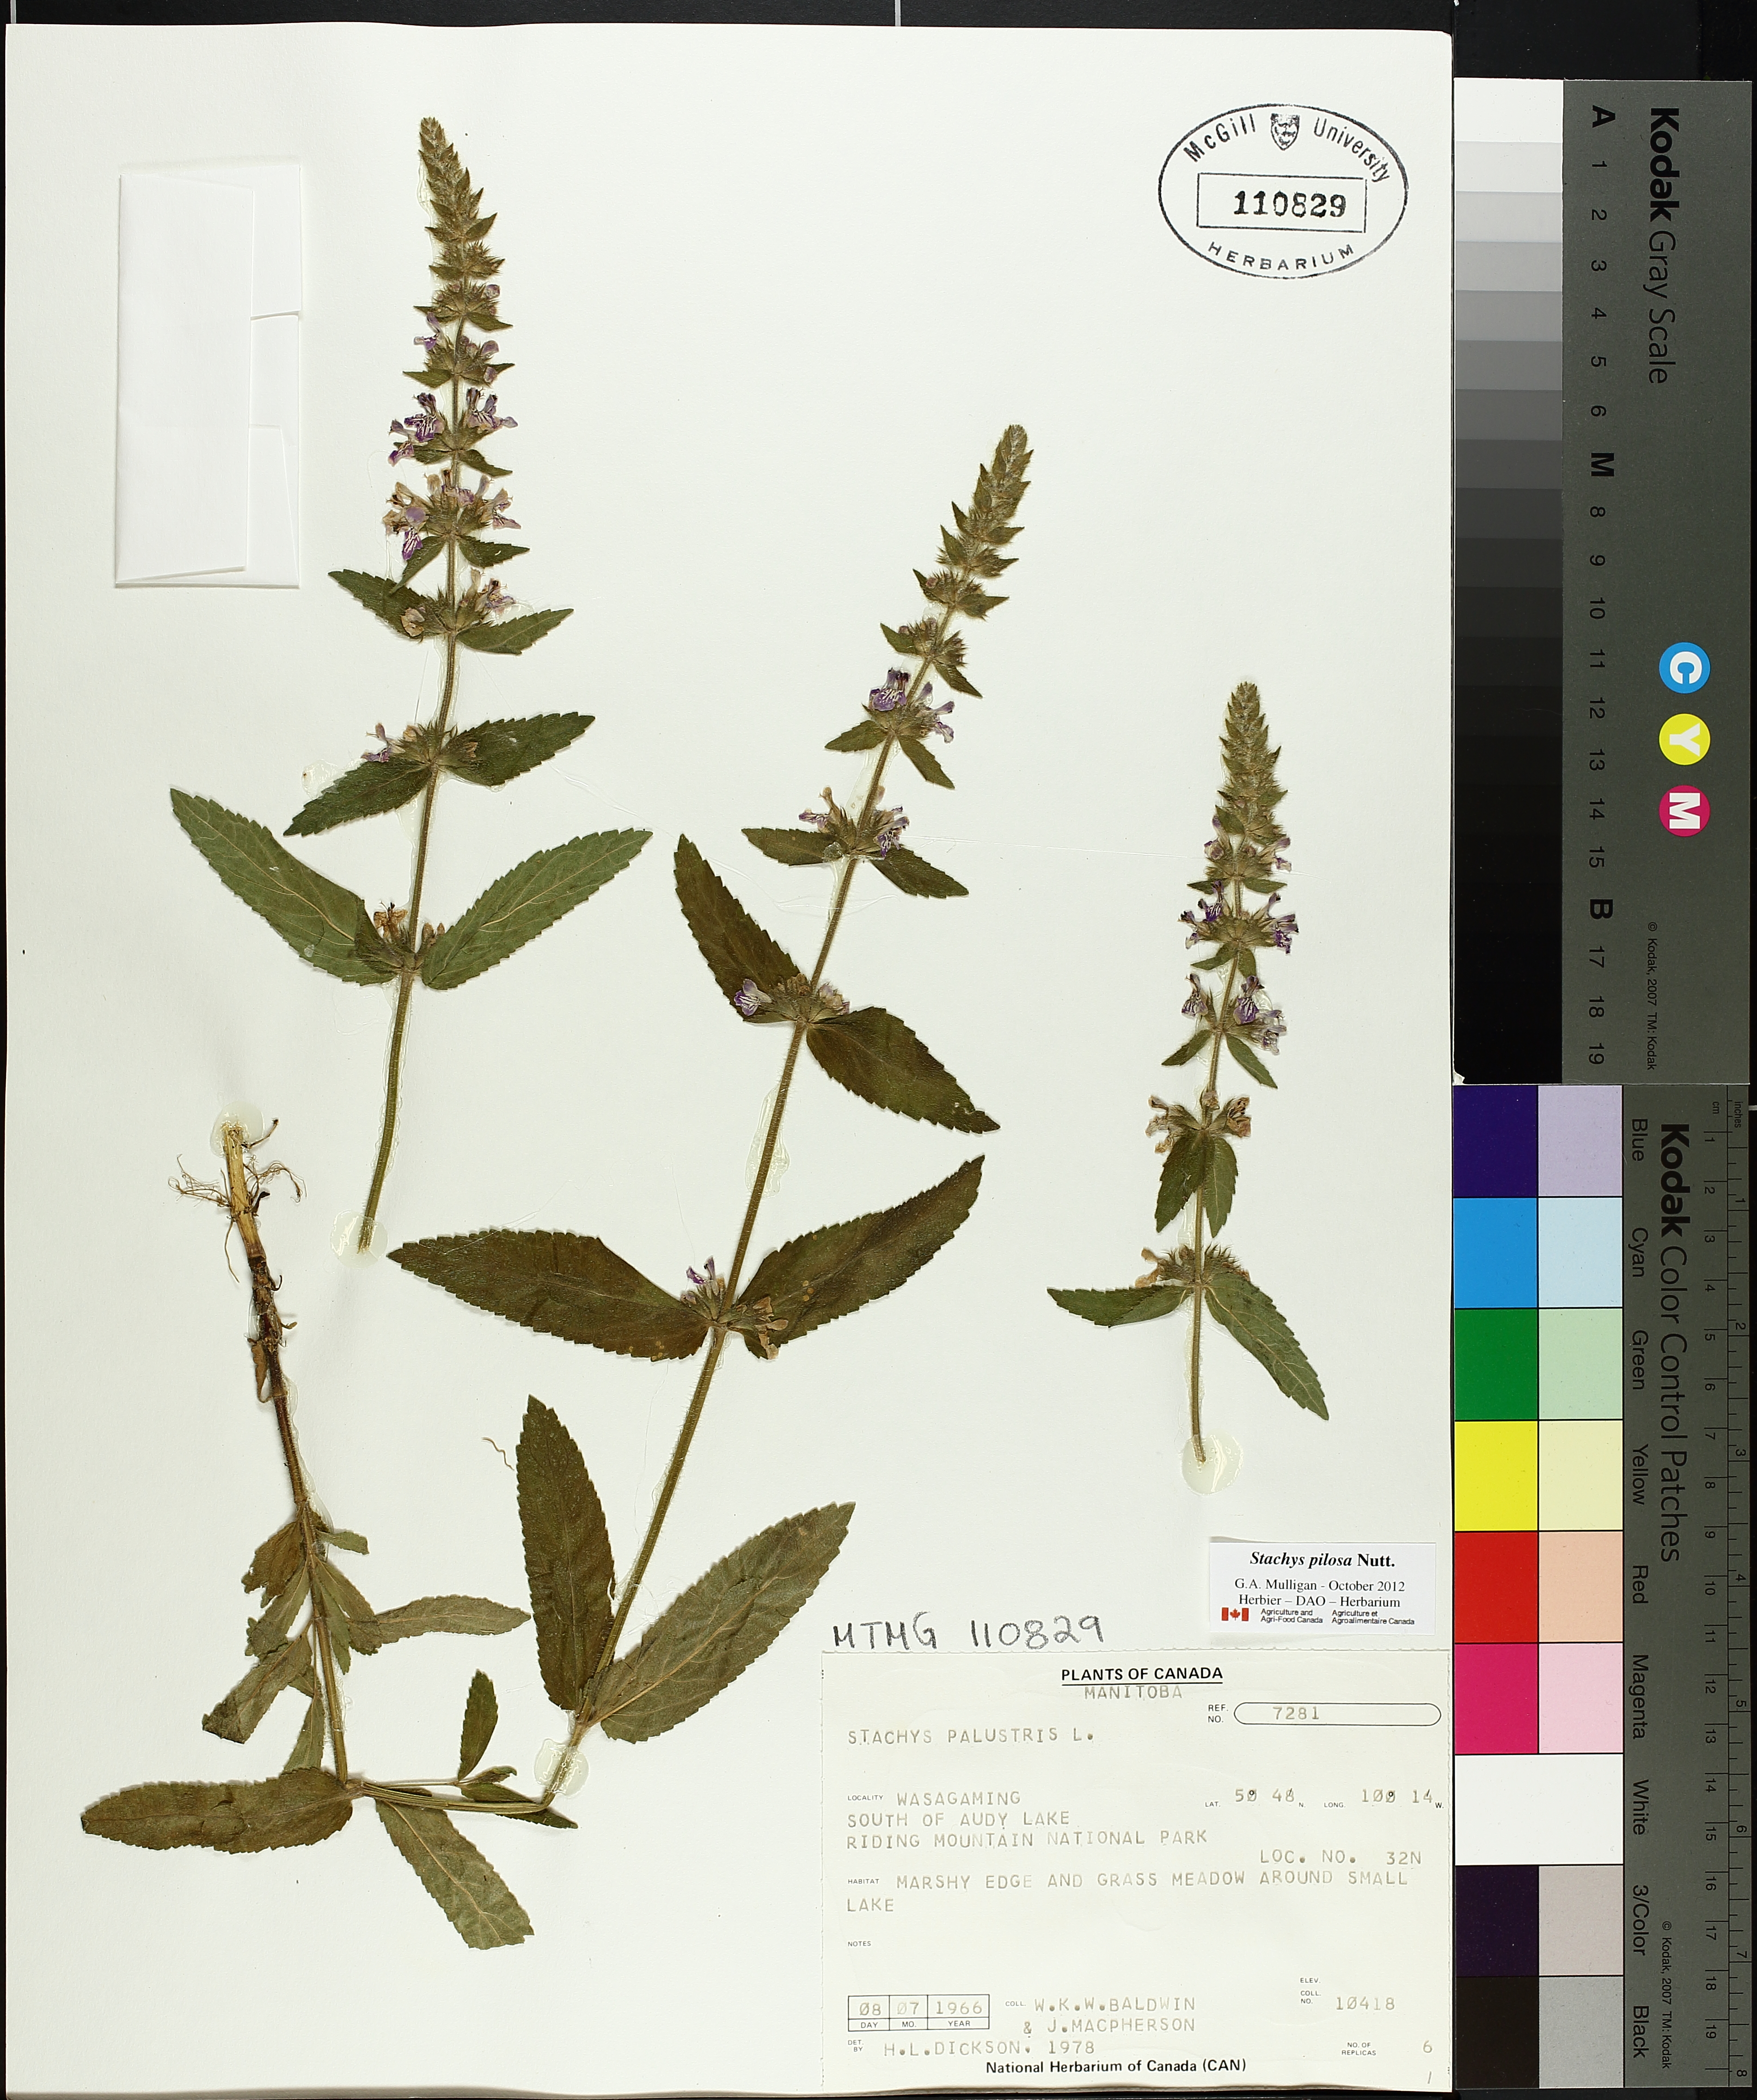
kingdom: Plantae
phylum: Tracheophyta
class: Magnoliopsida
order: Lamiales
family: Lamiaceae
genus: Stachys
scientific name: Stachys palustris
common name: Marsh woundwort
